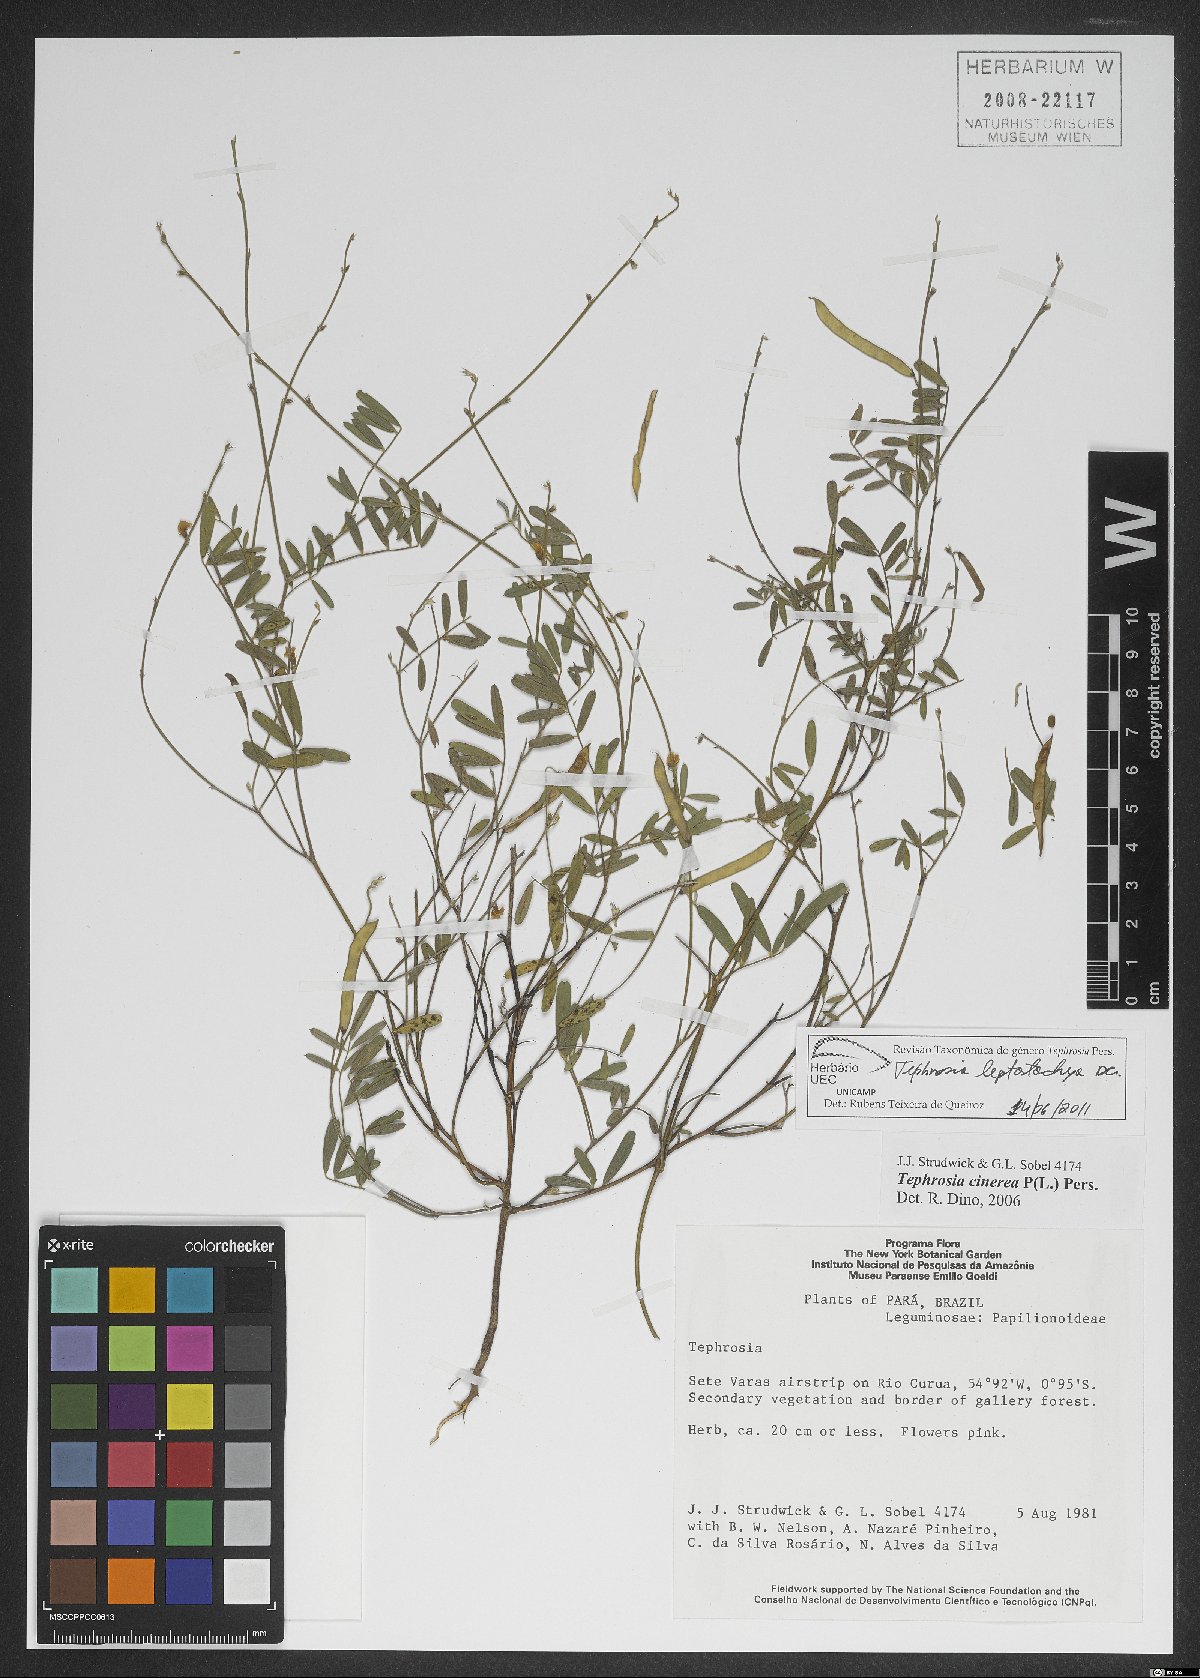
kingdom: Plantae
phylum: Tracheophyta
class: Magnoliopsida
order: Fabales
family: Fabaceae
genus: Tephrosia
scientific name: Tephrosia purpurea
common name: Fishpoison
